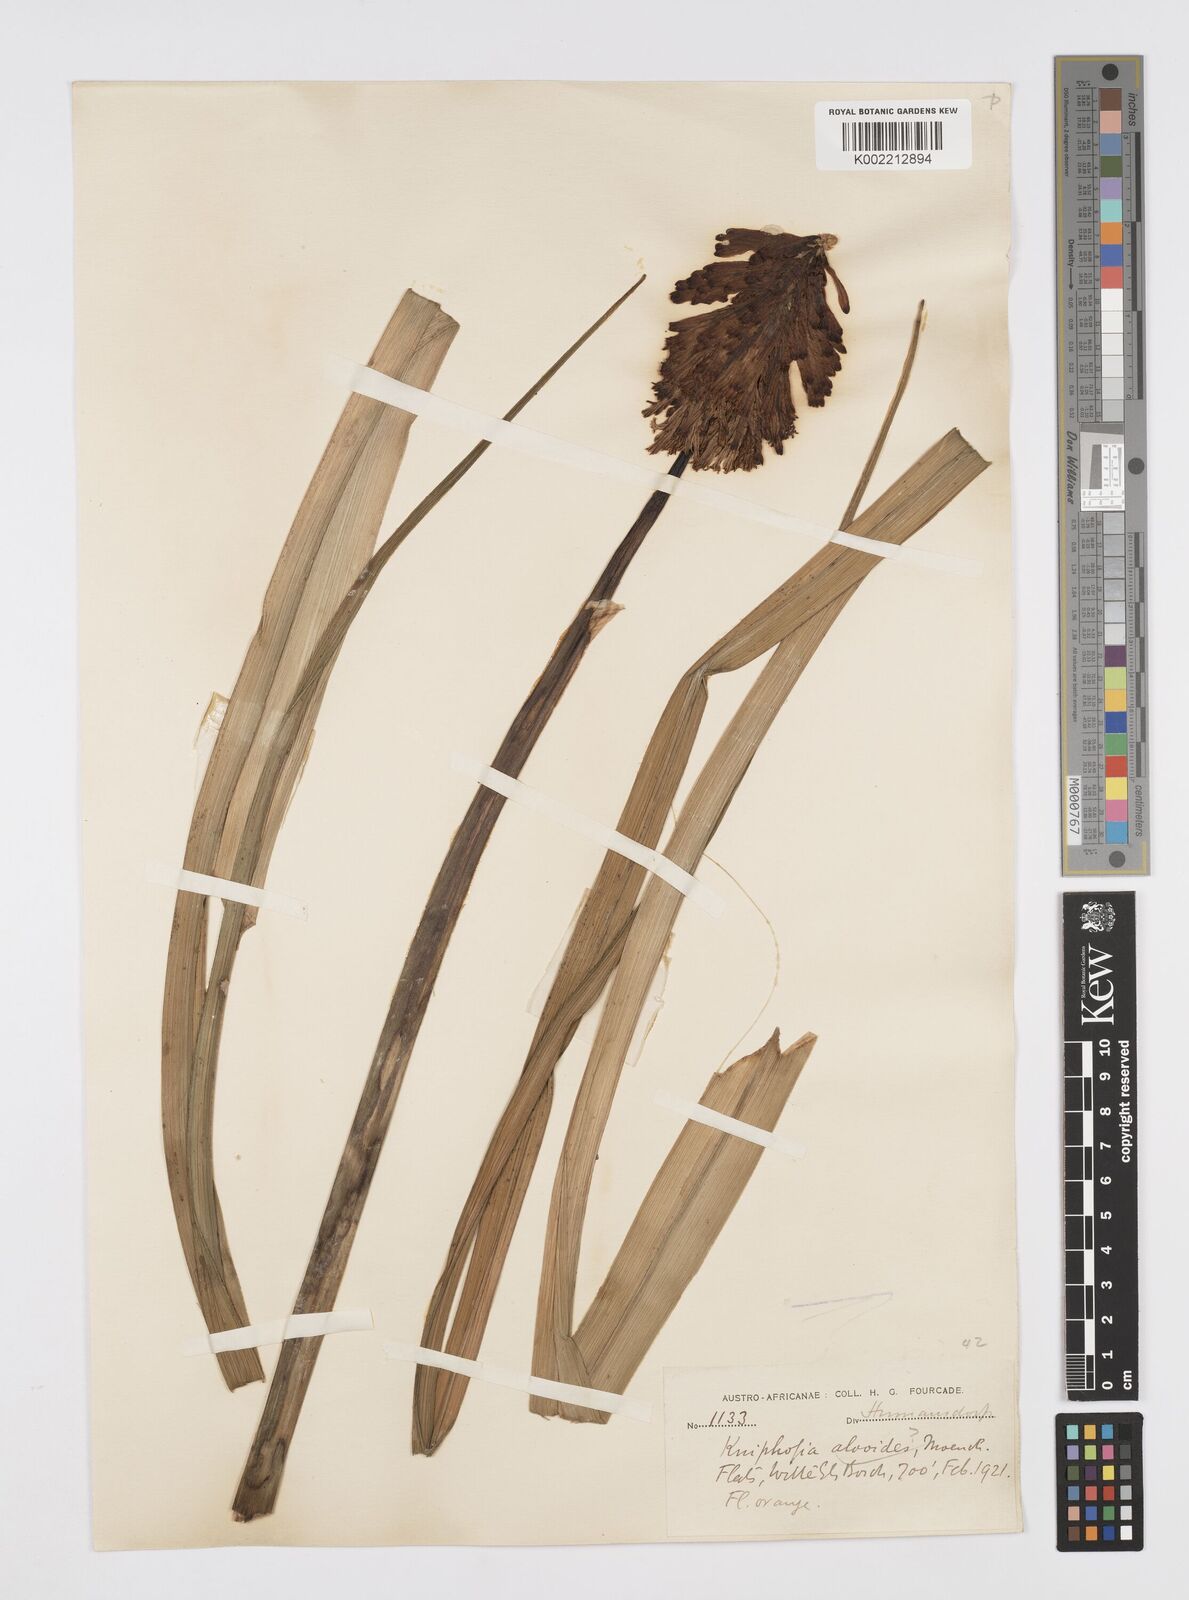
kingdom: Plantae
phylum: Tracheophyta
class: Liliopsida
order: Asparagales
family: Asphodelaceae
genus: Kniphofia
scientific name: Kniphofia uvaria
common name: Red-hot-poker
